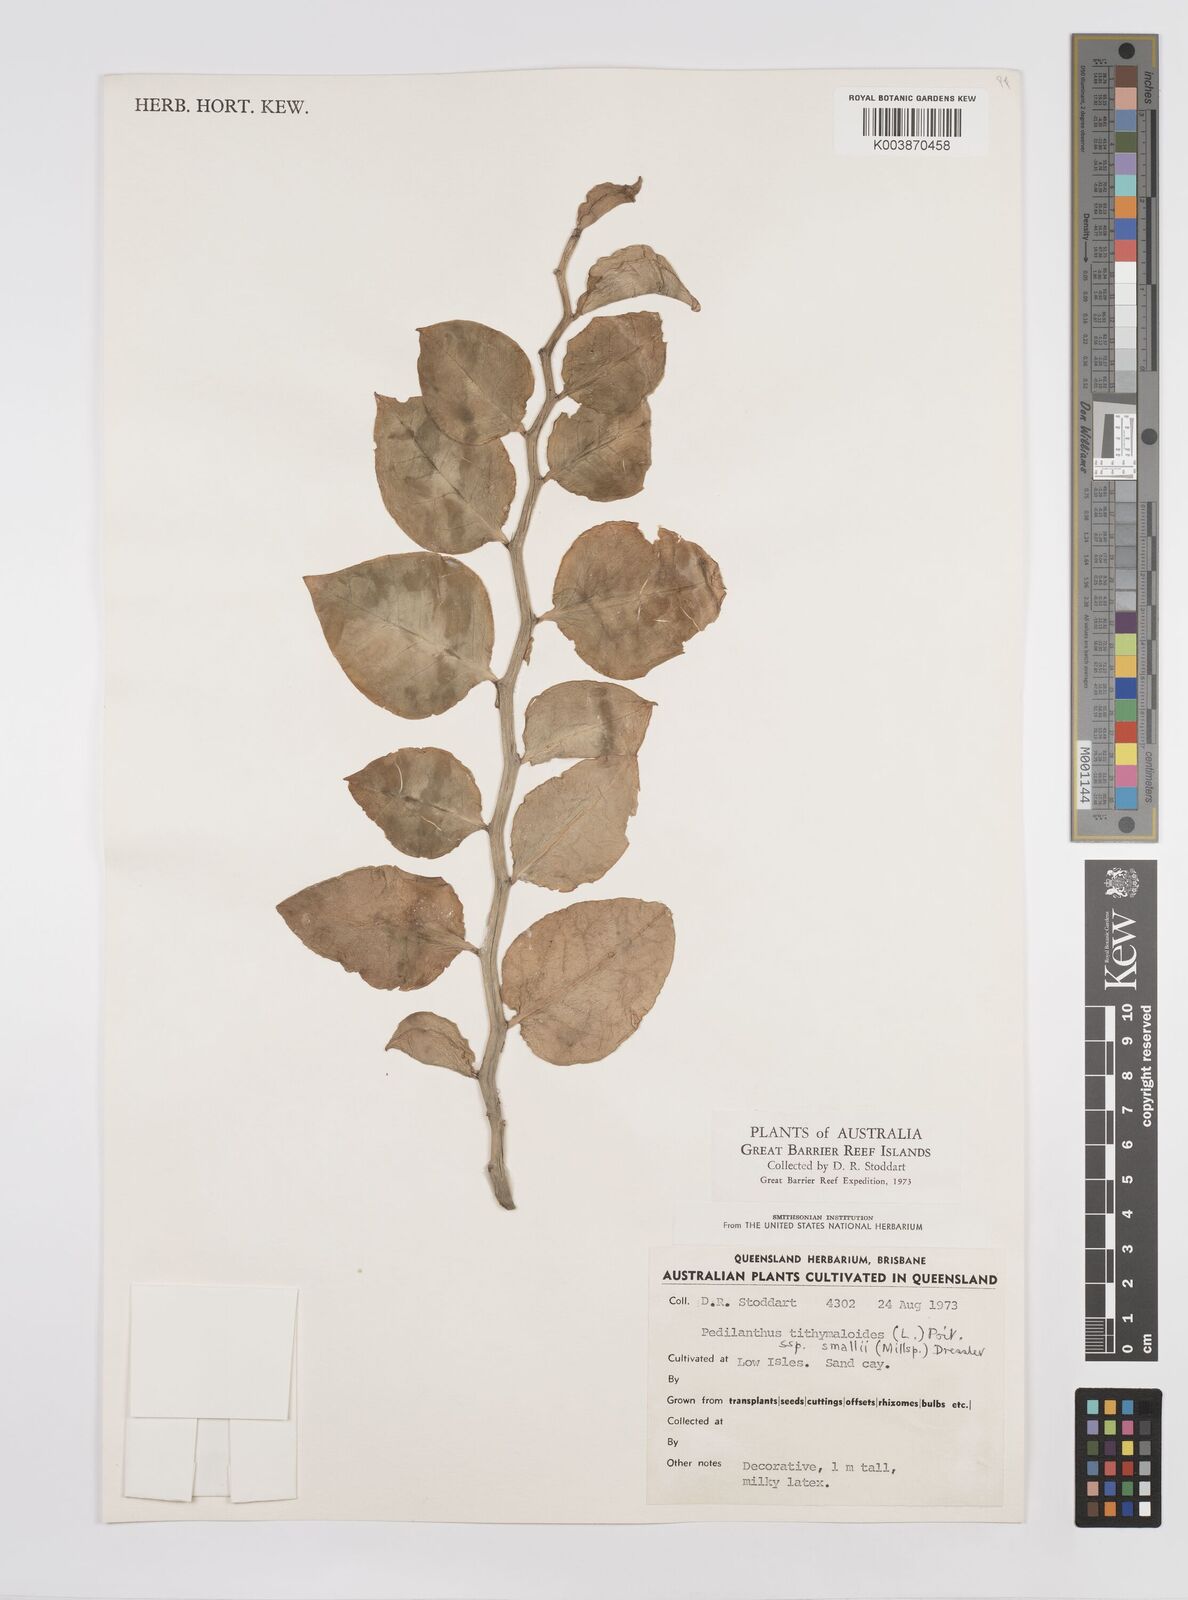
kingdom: Plantae
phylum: Tracheophyta
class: Magnoliopsida
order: Malpighiales
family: Euphorbiaceae
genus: Euphorbia
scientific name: Euphorbia tithymaloides
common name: Slipperplant
